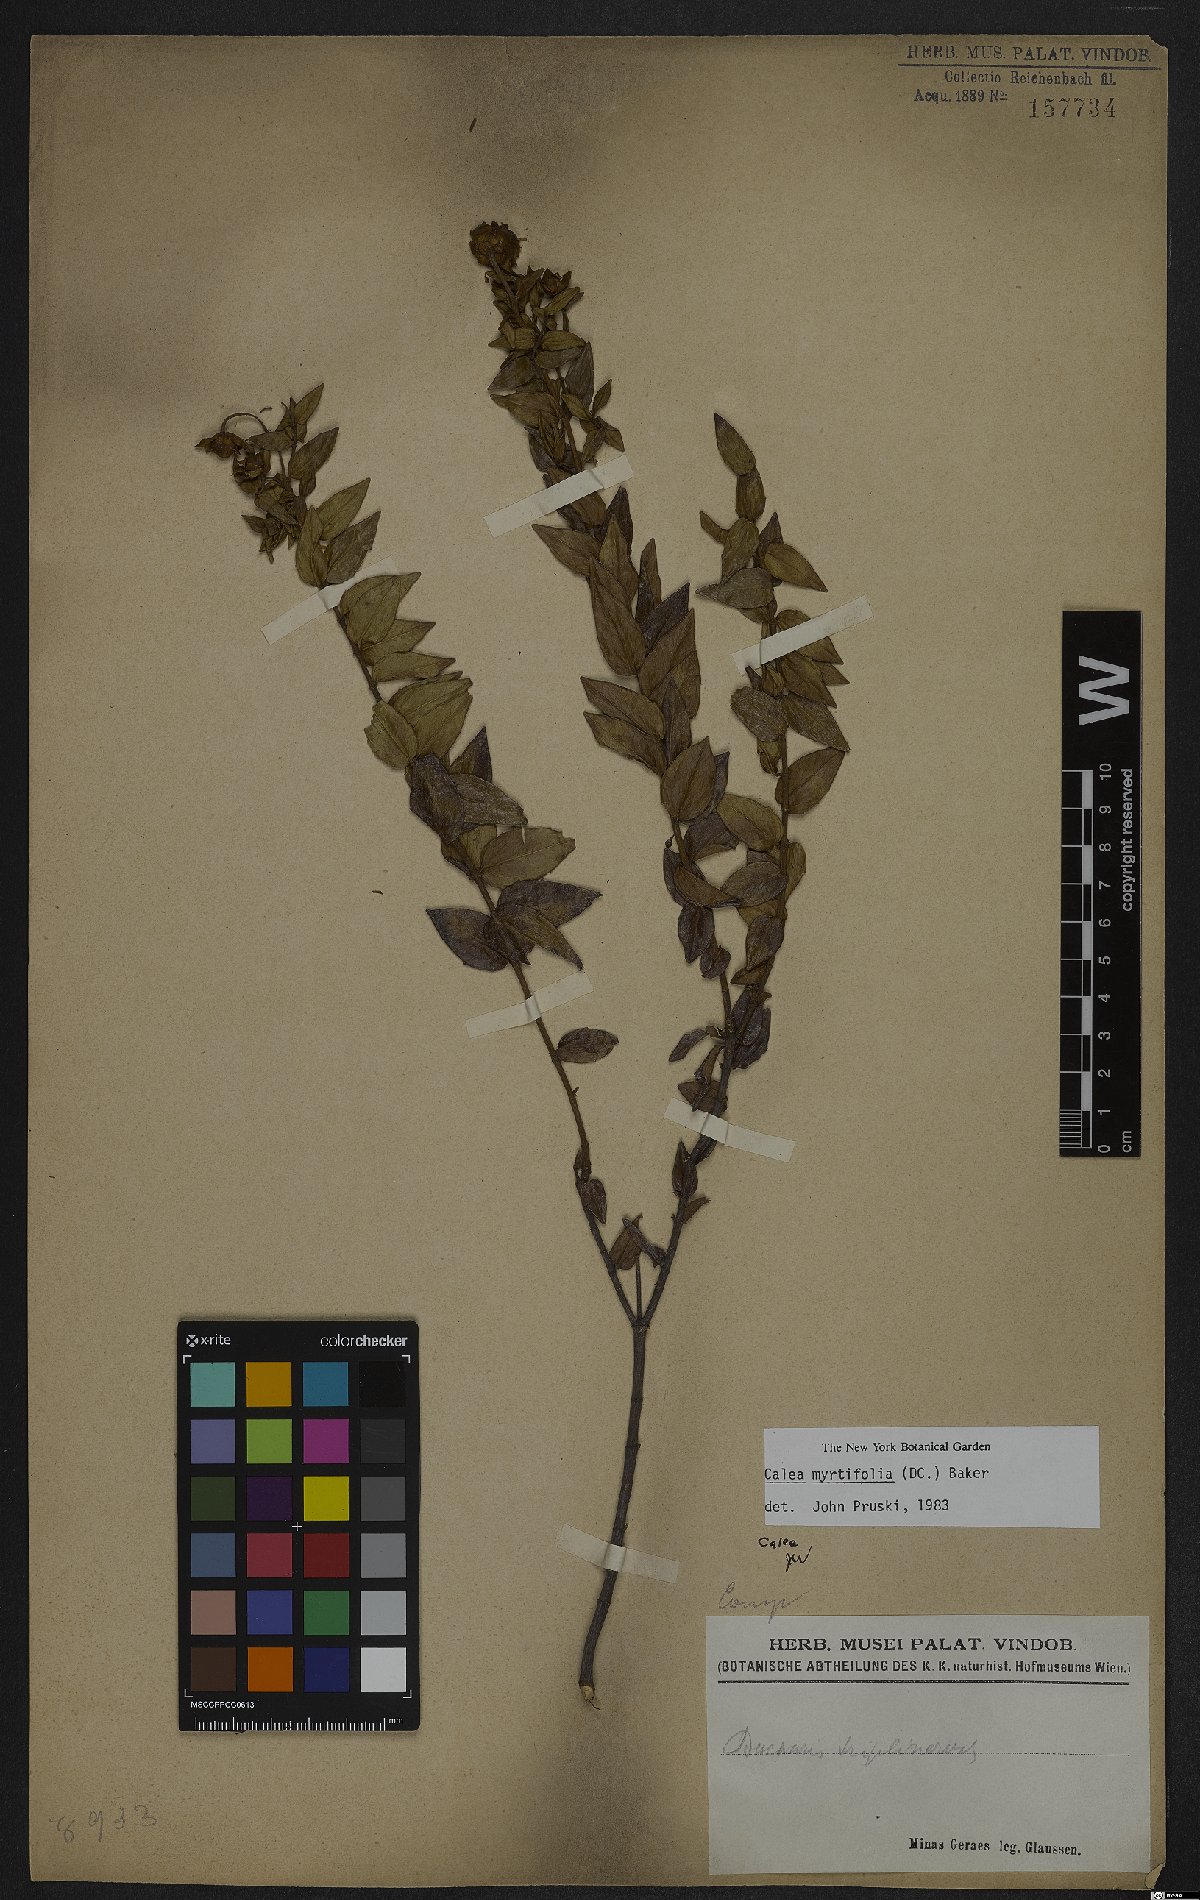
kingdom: Plantae
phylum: Tracheophyta
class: Magnoliopsida
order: Asterales
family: Asteraceae
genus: Calea
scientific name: Calea myrtifolia
